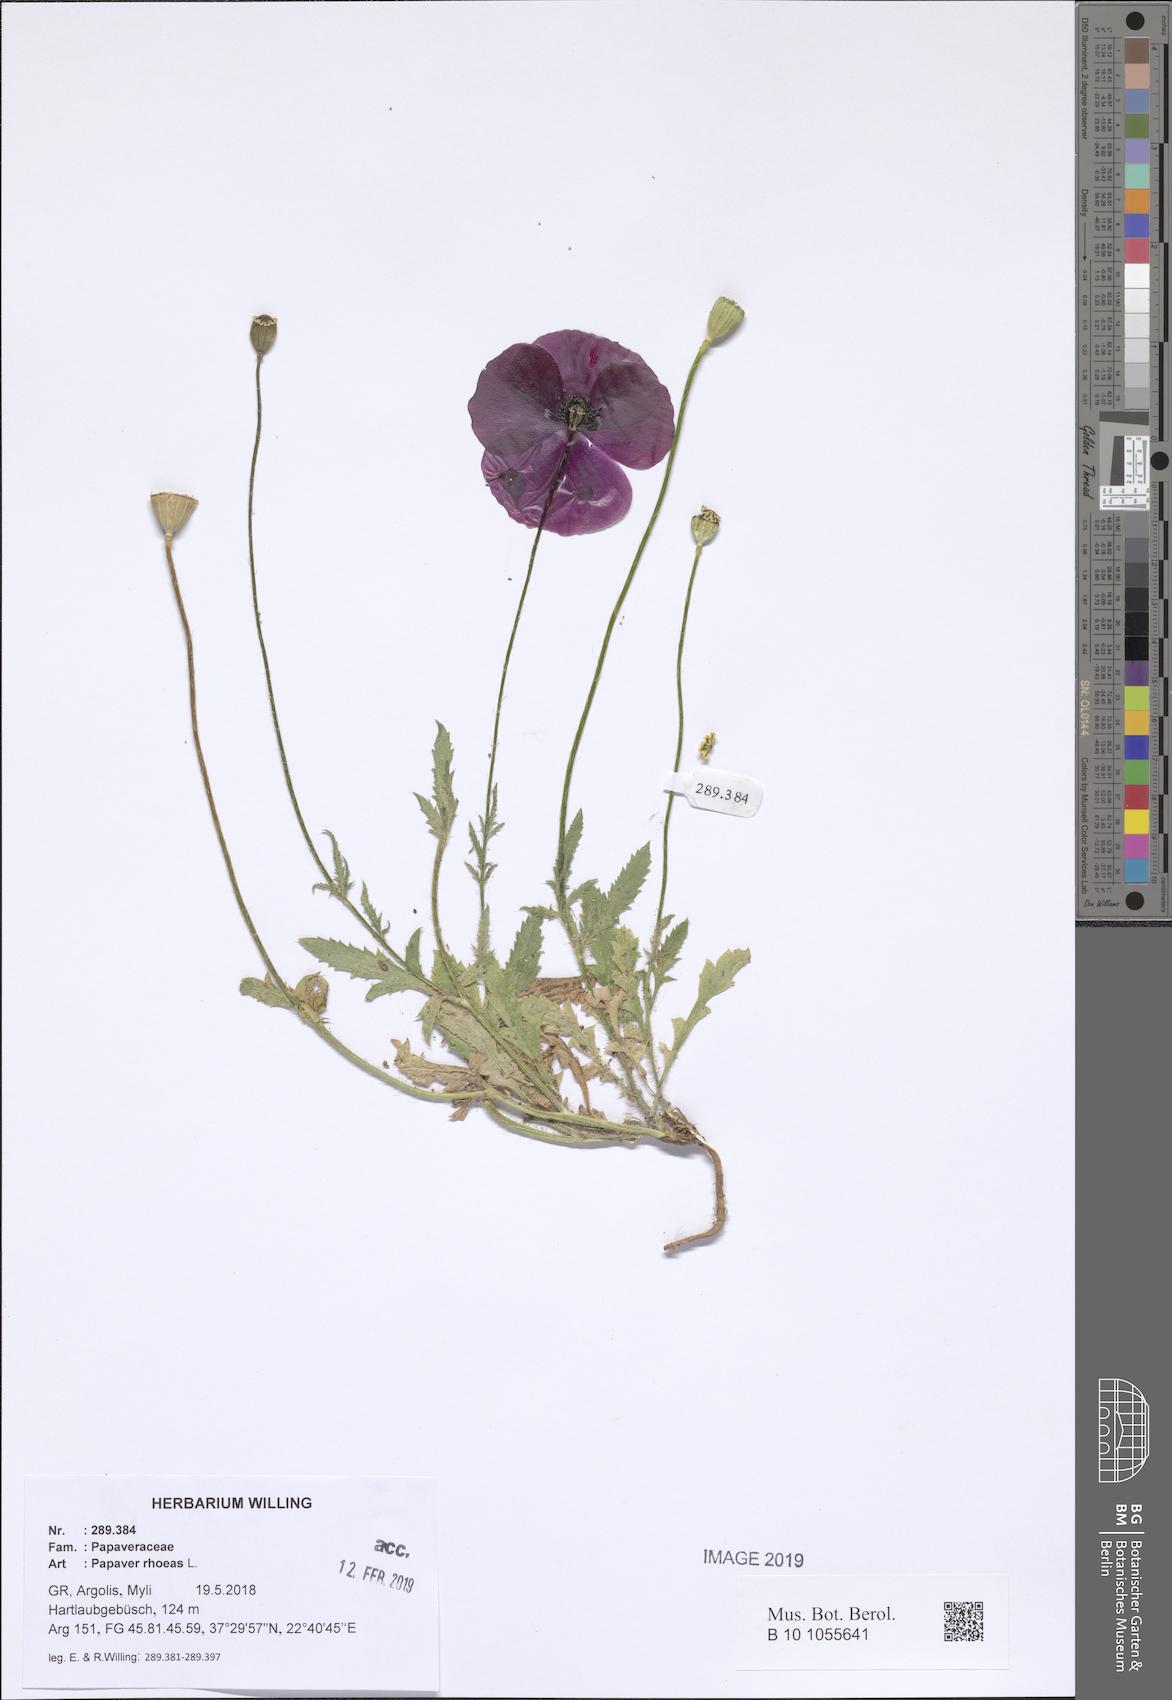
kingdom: Plantae
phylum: Tracheophyta
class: Magnoliopsida
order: Ranunculales
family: Papaveraceae
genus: Papaver
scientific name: Papaver rhoeas
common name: Corn poppy
